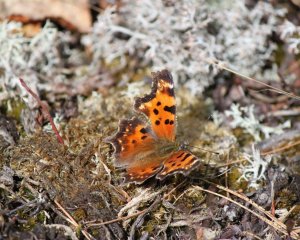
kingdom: Animalia
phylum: Arthropoda
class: Insecta
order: Lepidoptera
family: Nymphalidae
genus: Polygonia
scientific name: Polygonia faunus
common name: Green Comma
